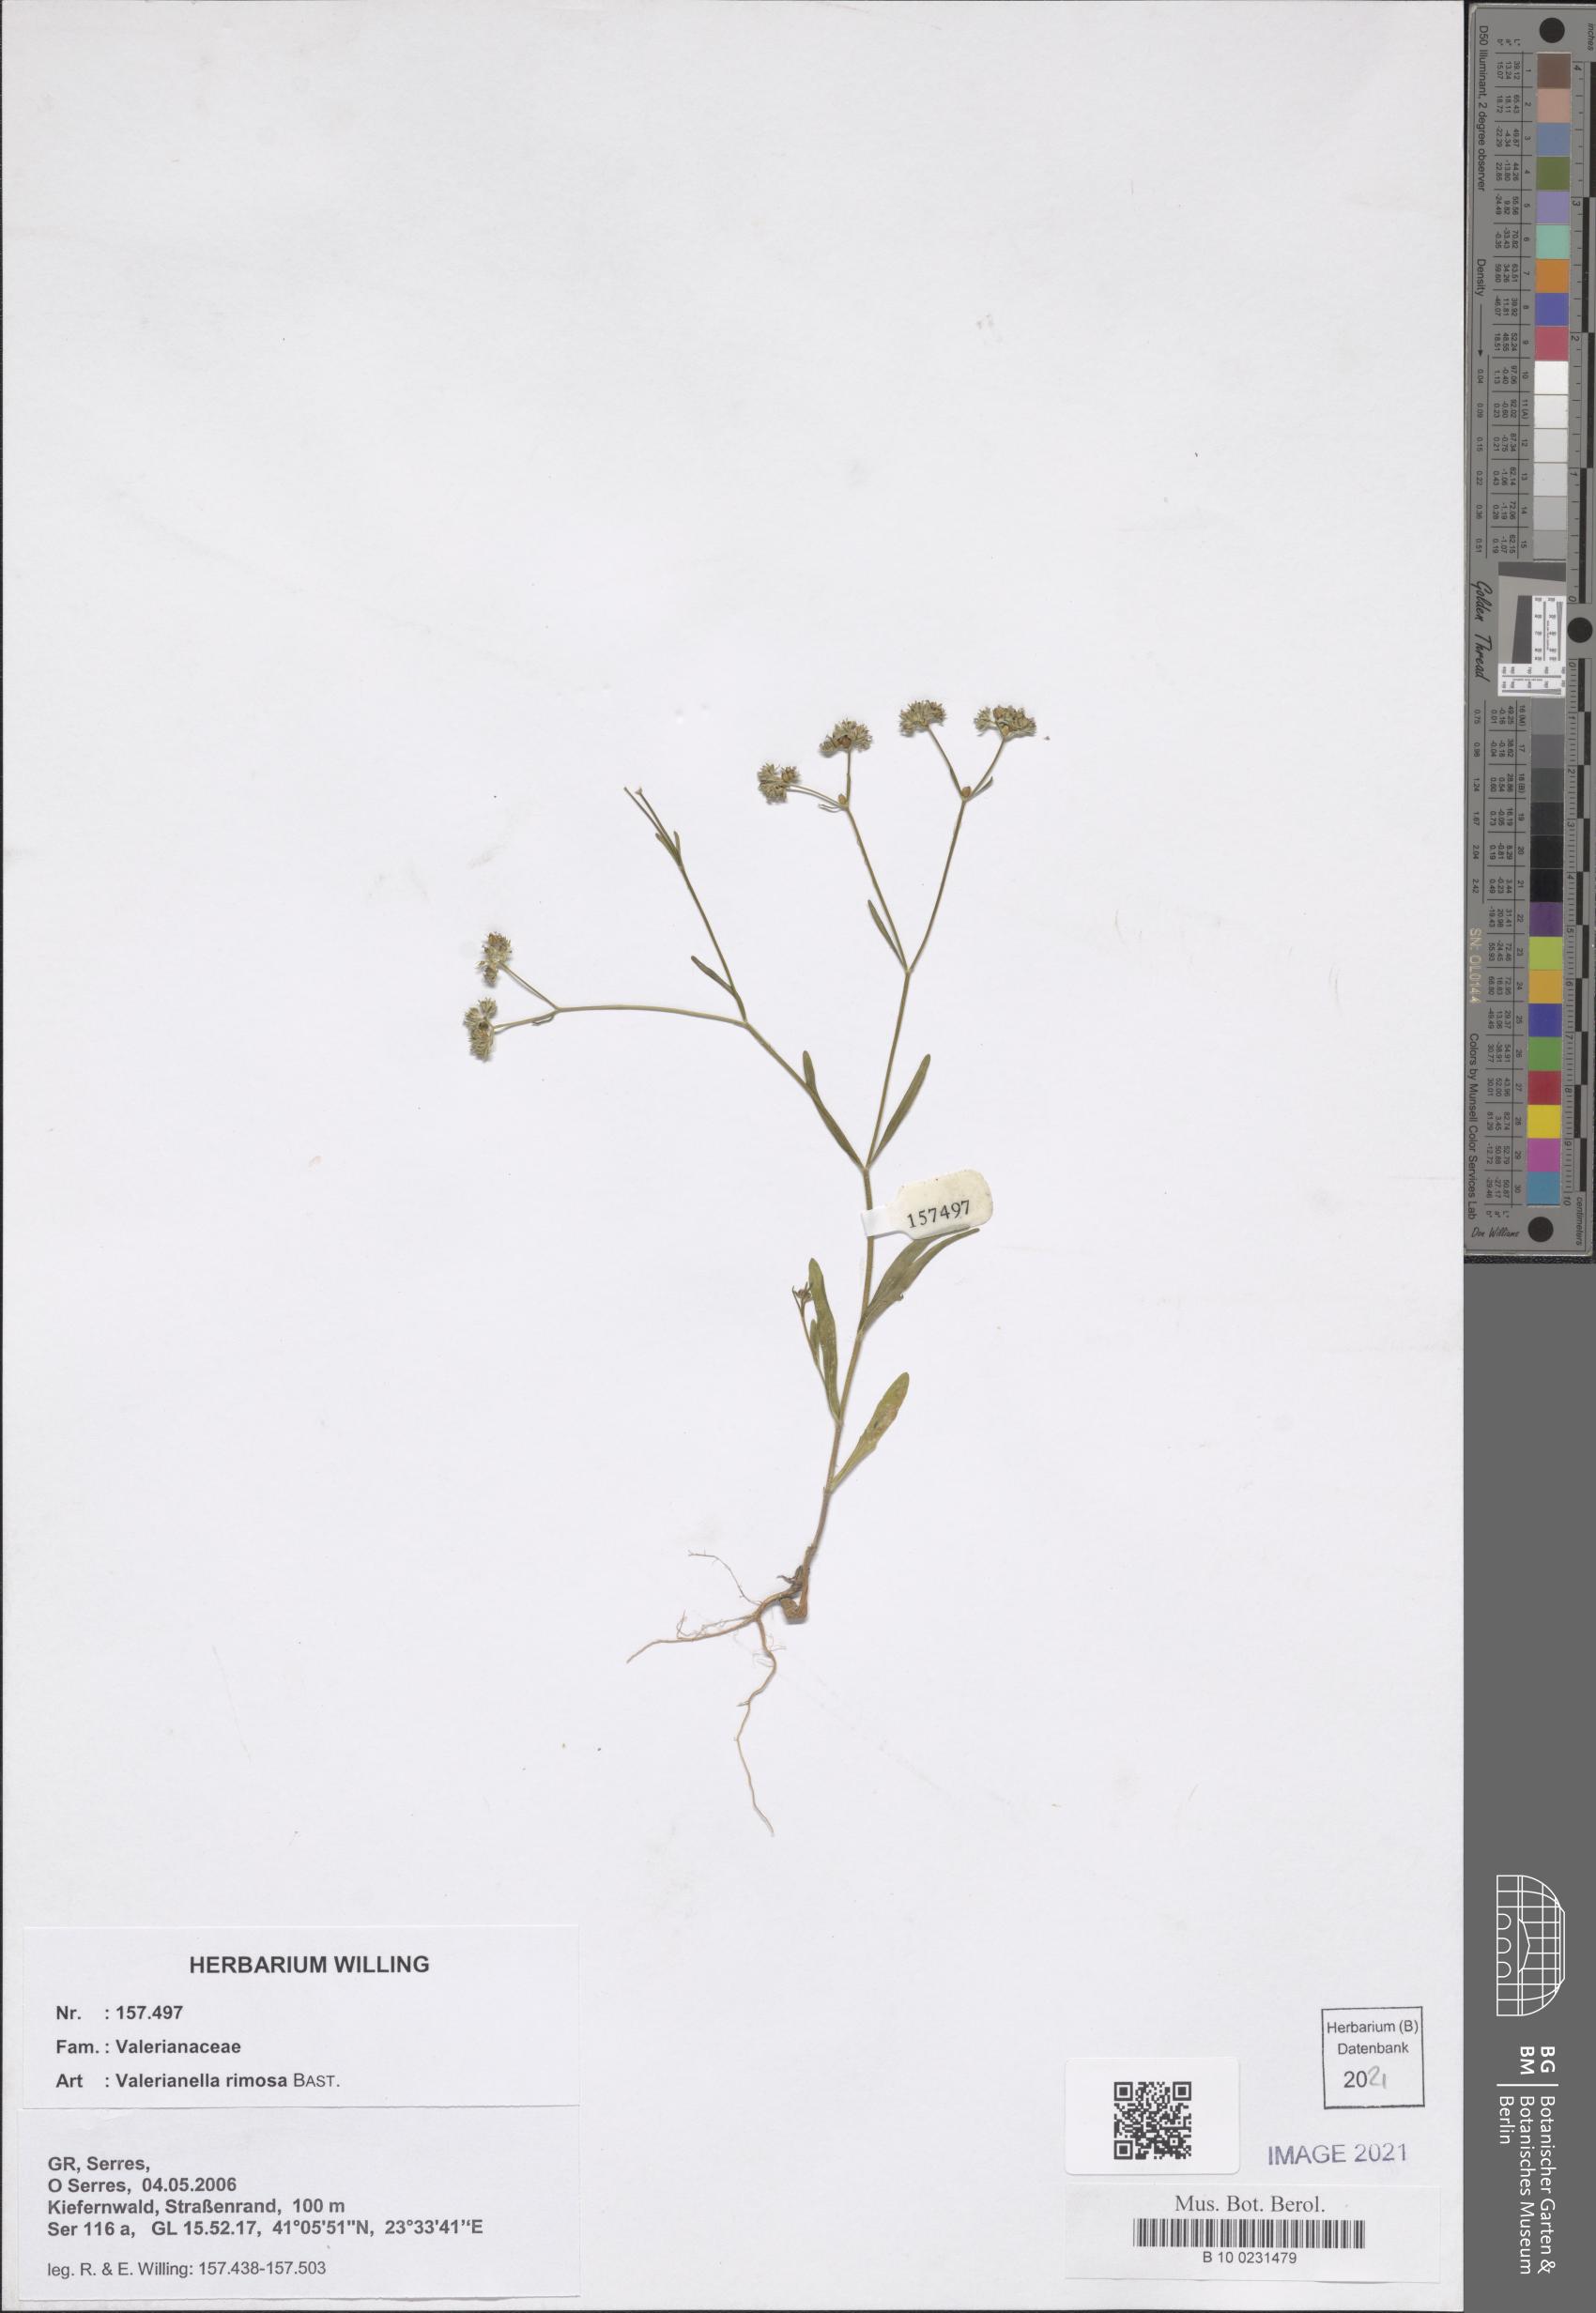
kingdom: Plantae
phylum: Tracheophyta
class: Magnoliopsida
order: Dipsacales
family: Caprifoliaceae
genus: Valerianella
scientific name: Valerianella rimosa
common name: Broad-fruited cornsalad
